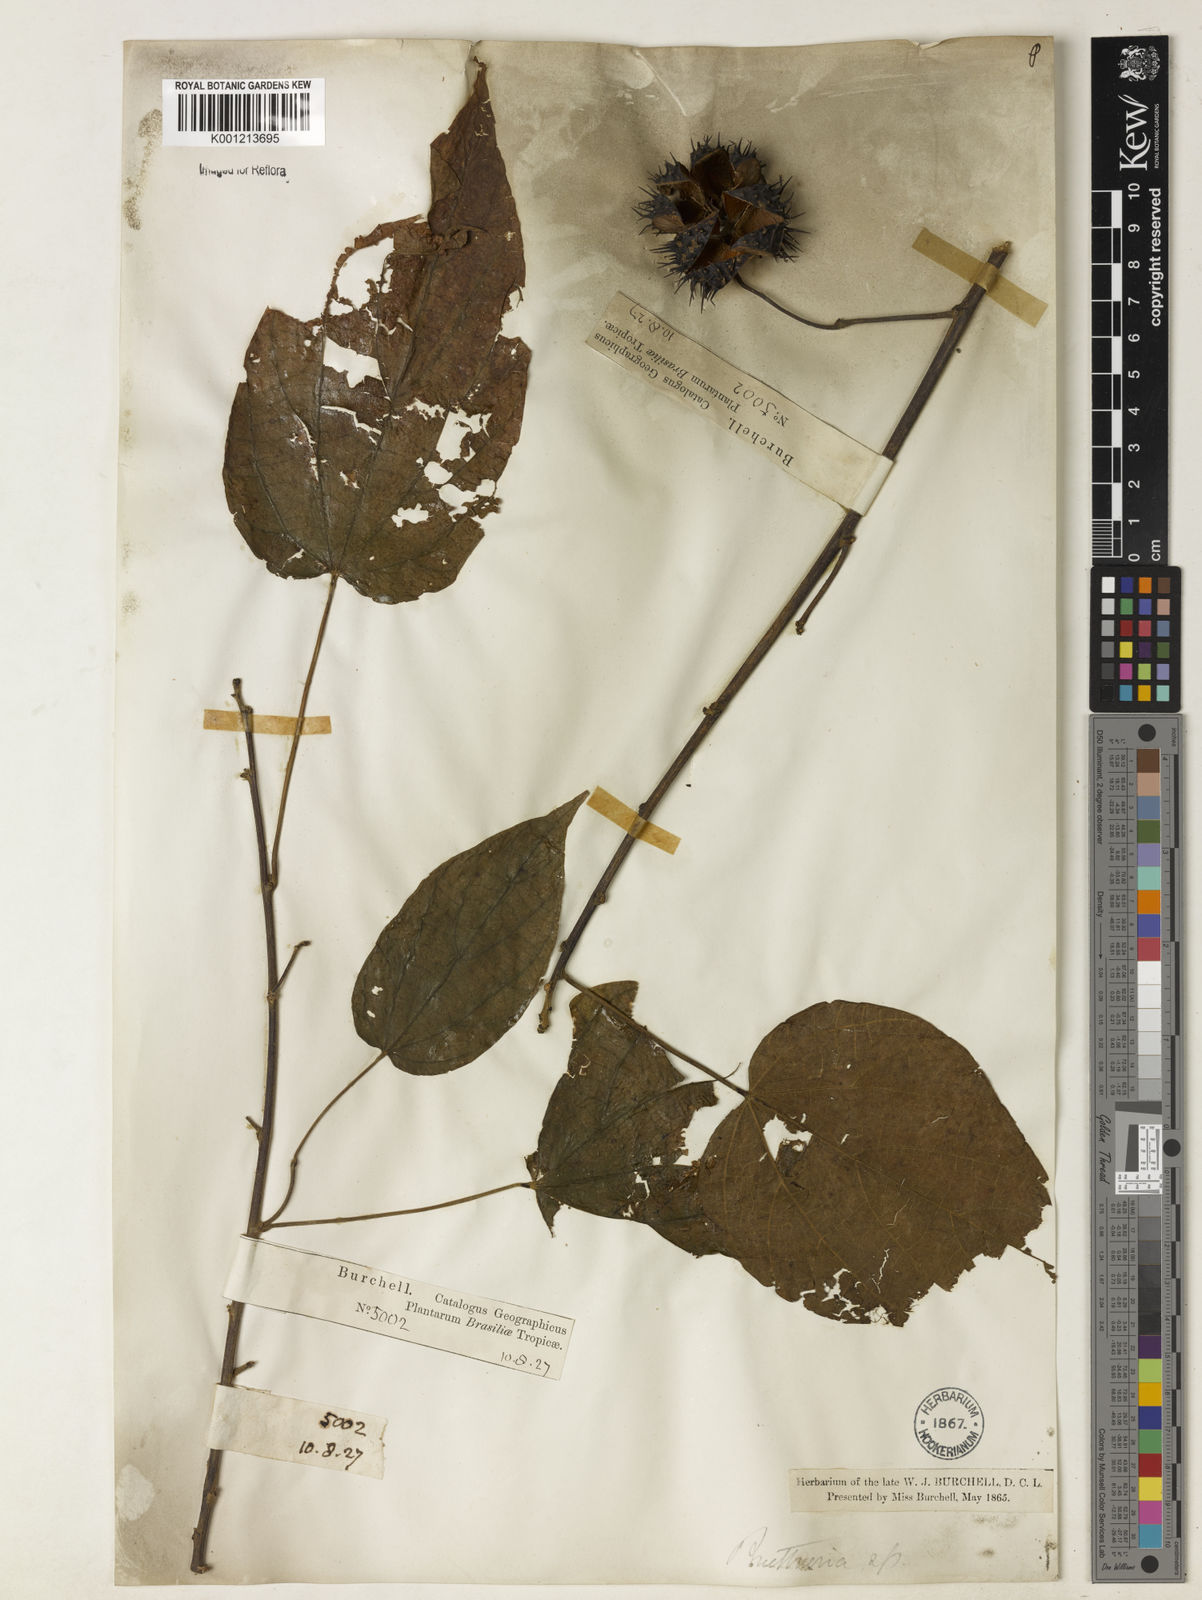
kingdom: Plantae
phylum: Tracheophyta
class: Magnoliopsida
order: Malvales
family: Malvaceae
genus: Byttneria
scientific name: Byttneria catalpifolia
